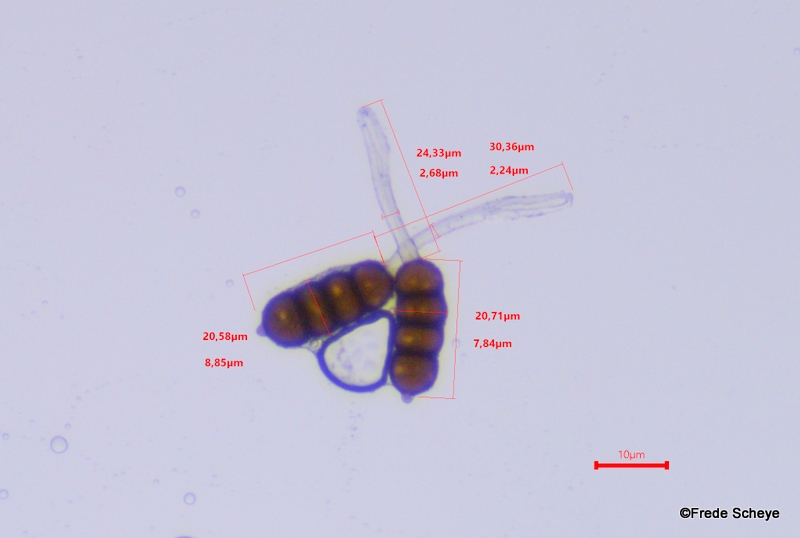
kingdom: Fungi
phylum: Basidiomycota
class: Pucciniomycetes
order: Pucciniales
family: Phragmidiaceae
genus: Phragmidium
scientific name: Phragmidium violaceum
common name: violet flercellerust
